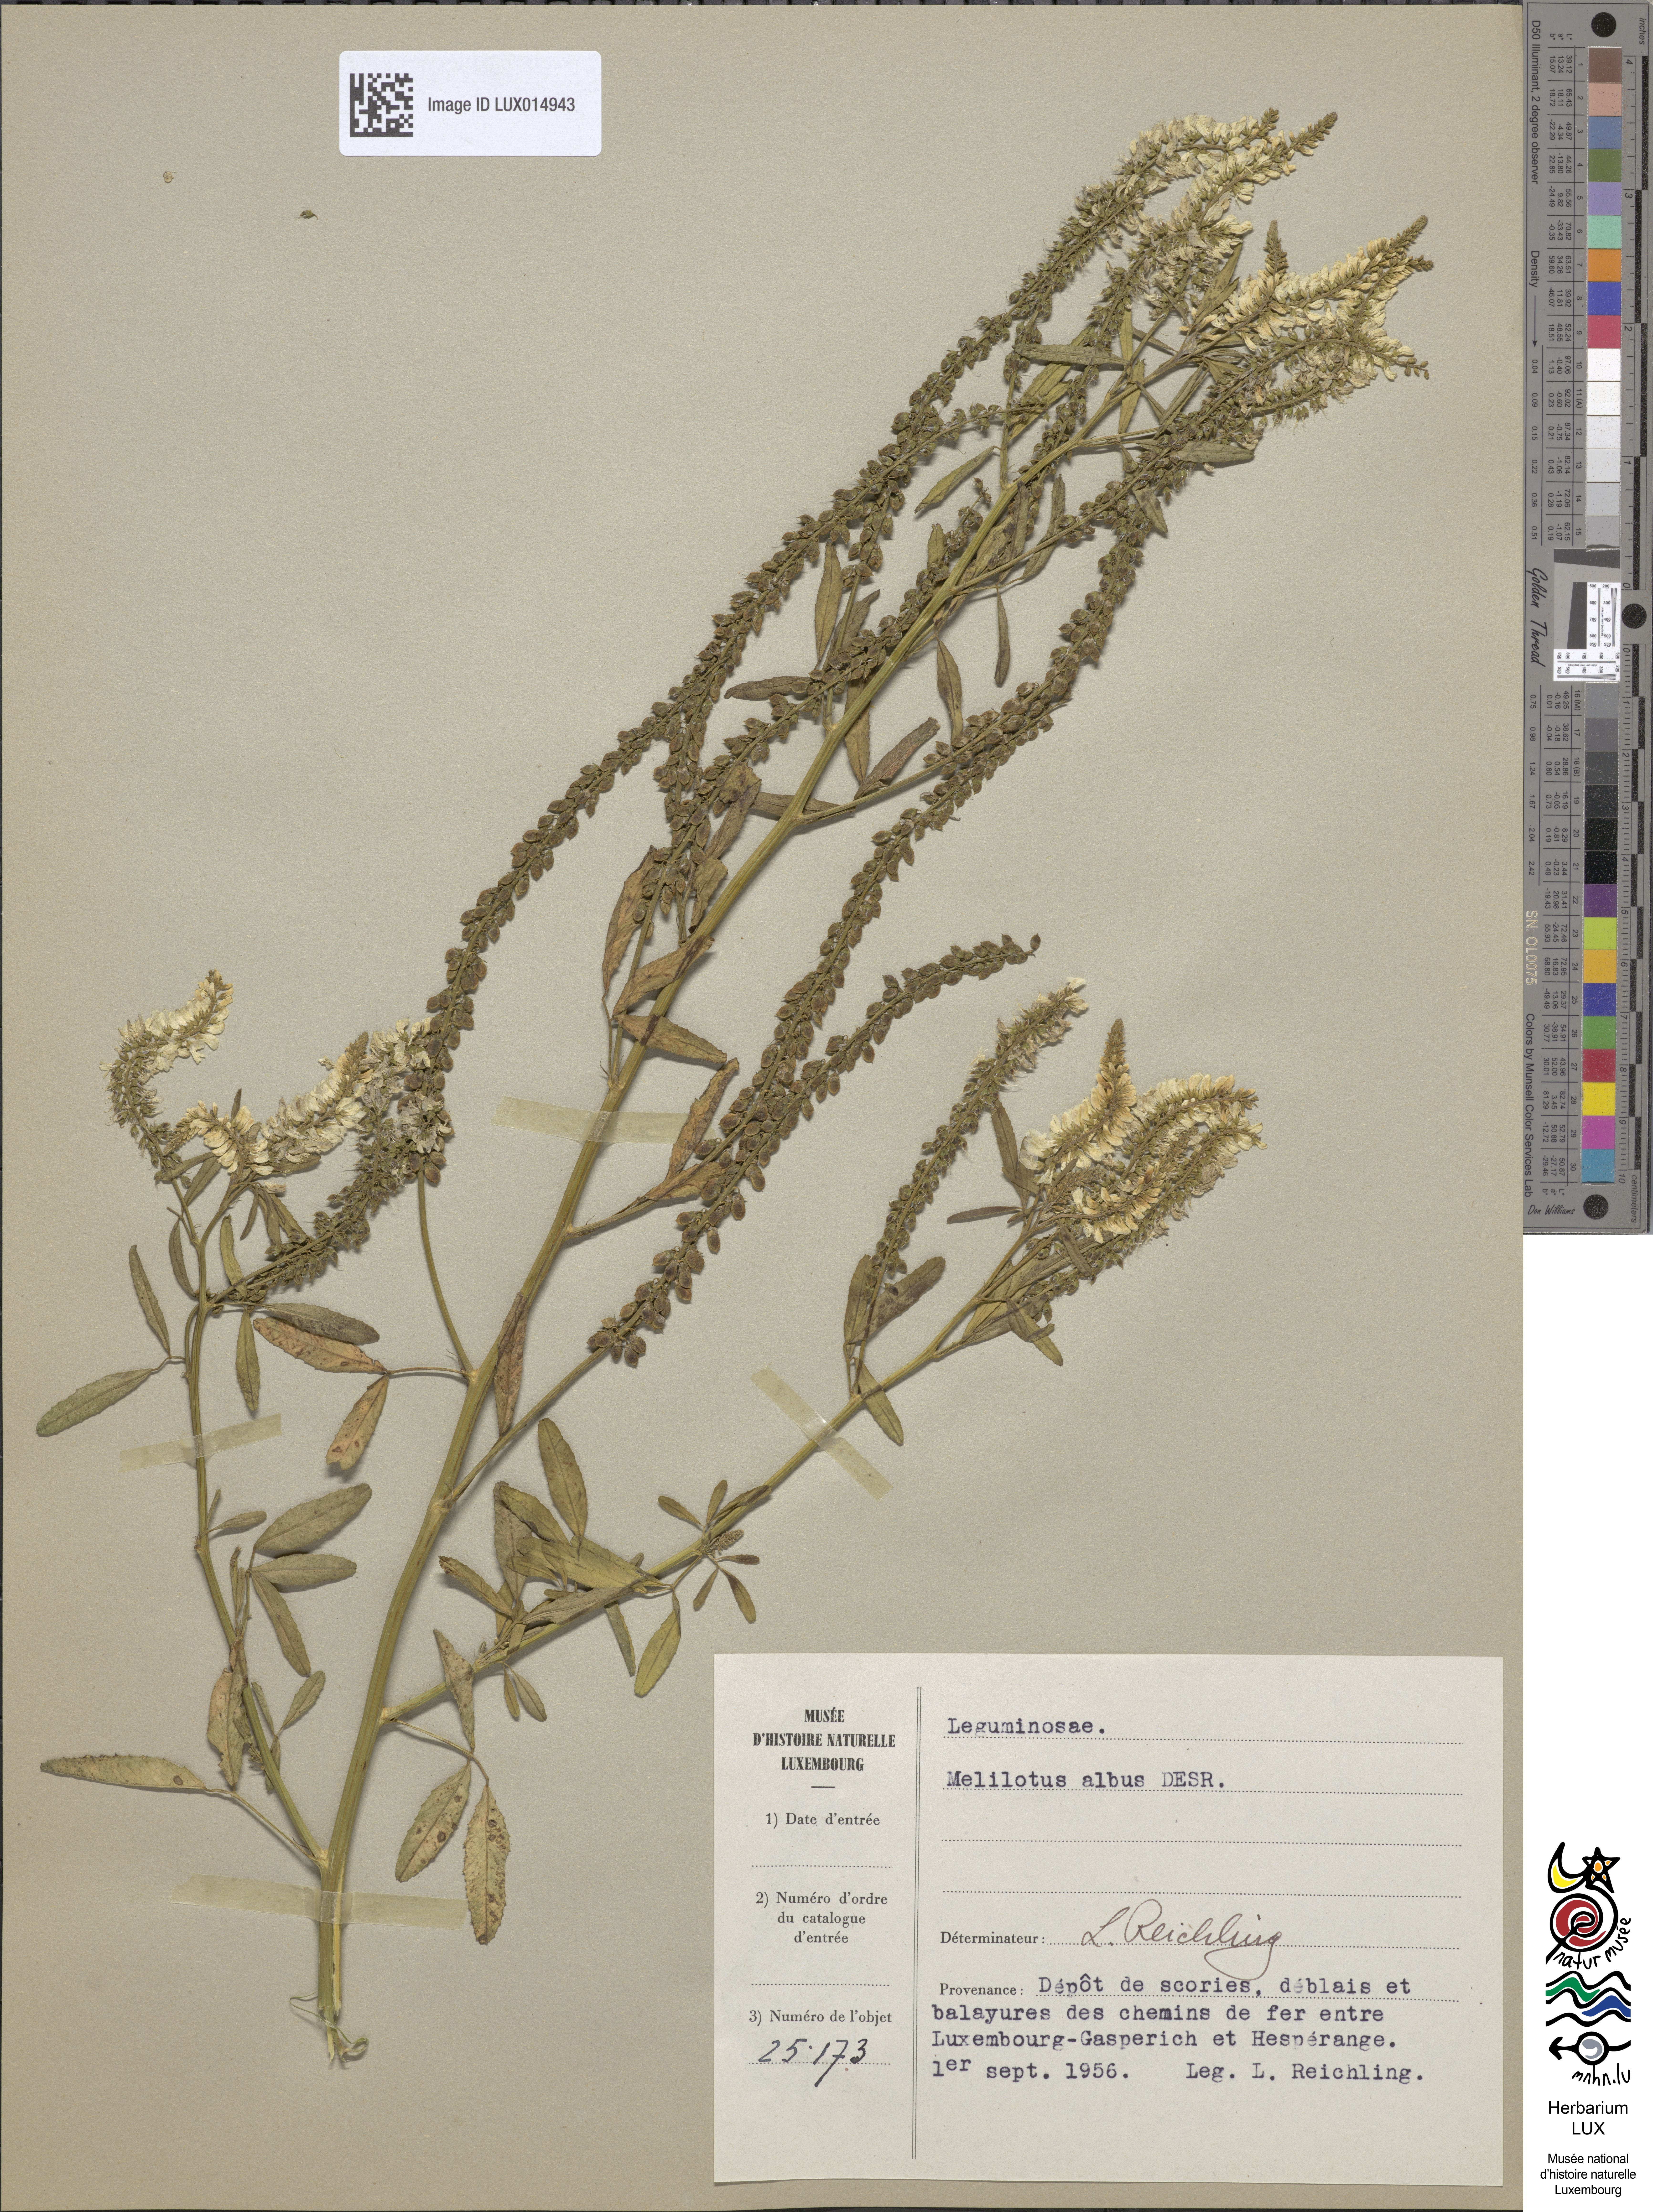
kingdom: Plantae
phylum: Tracheophyta
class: Magnoliopsida
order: Fabales
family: Fabaceae
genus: Melilotus
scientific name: Melilotus albus
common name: White melilot
